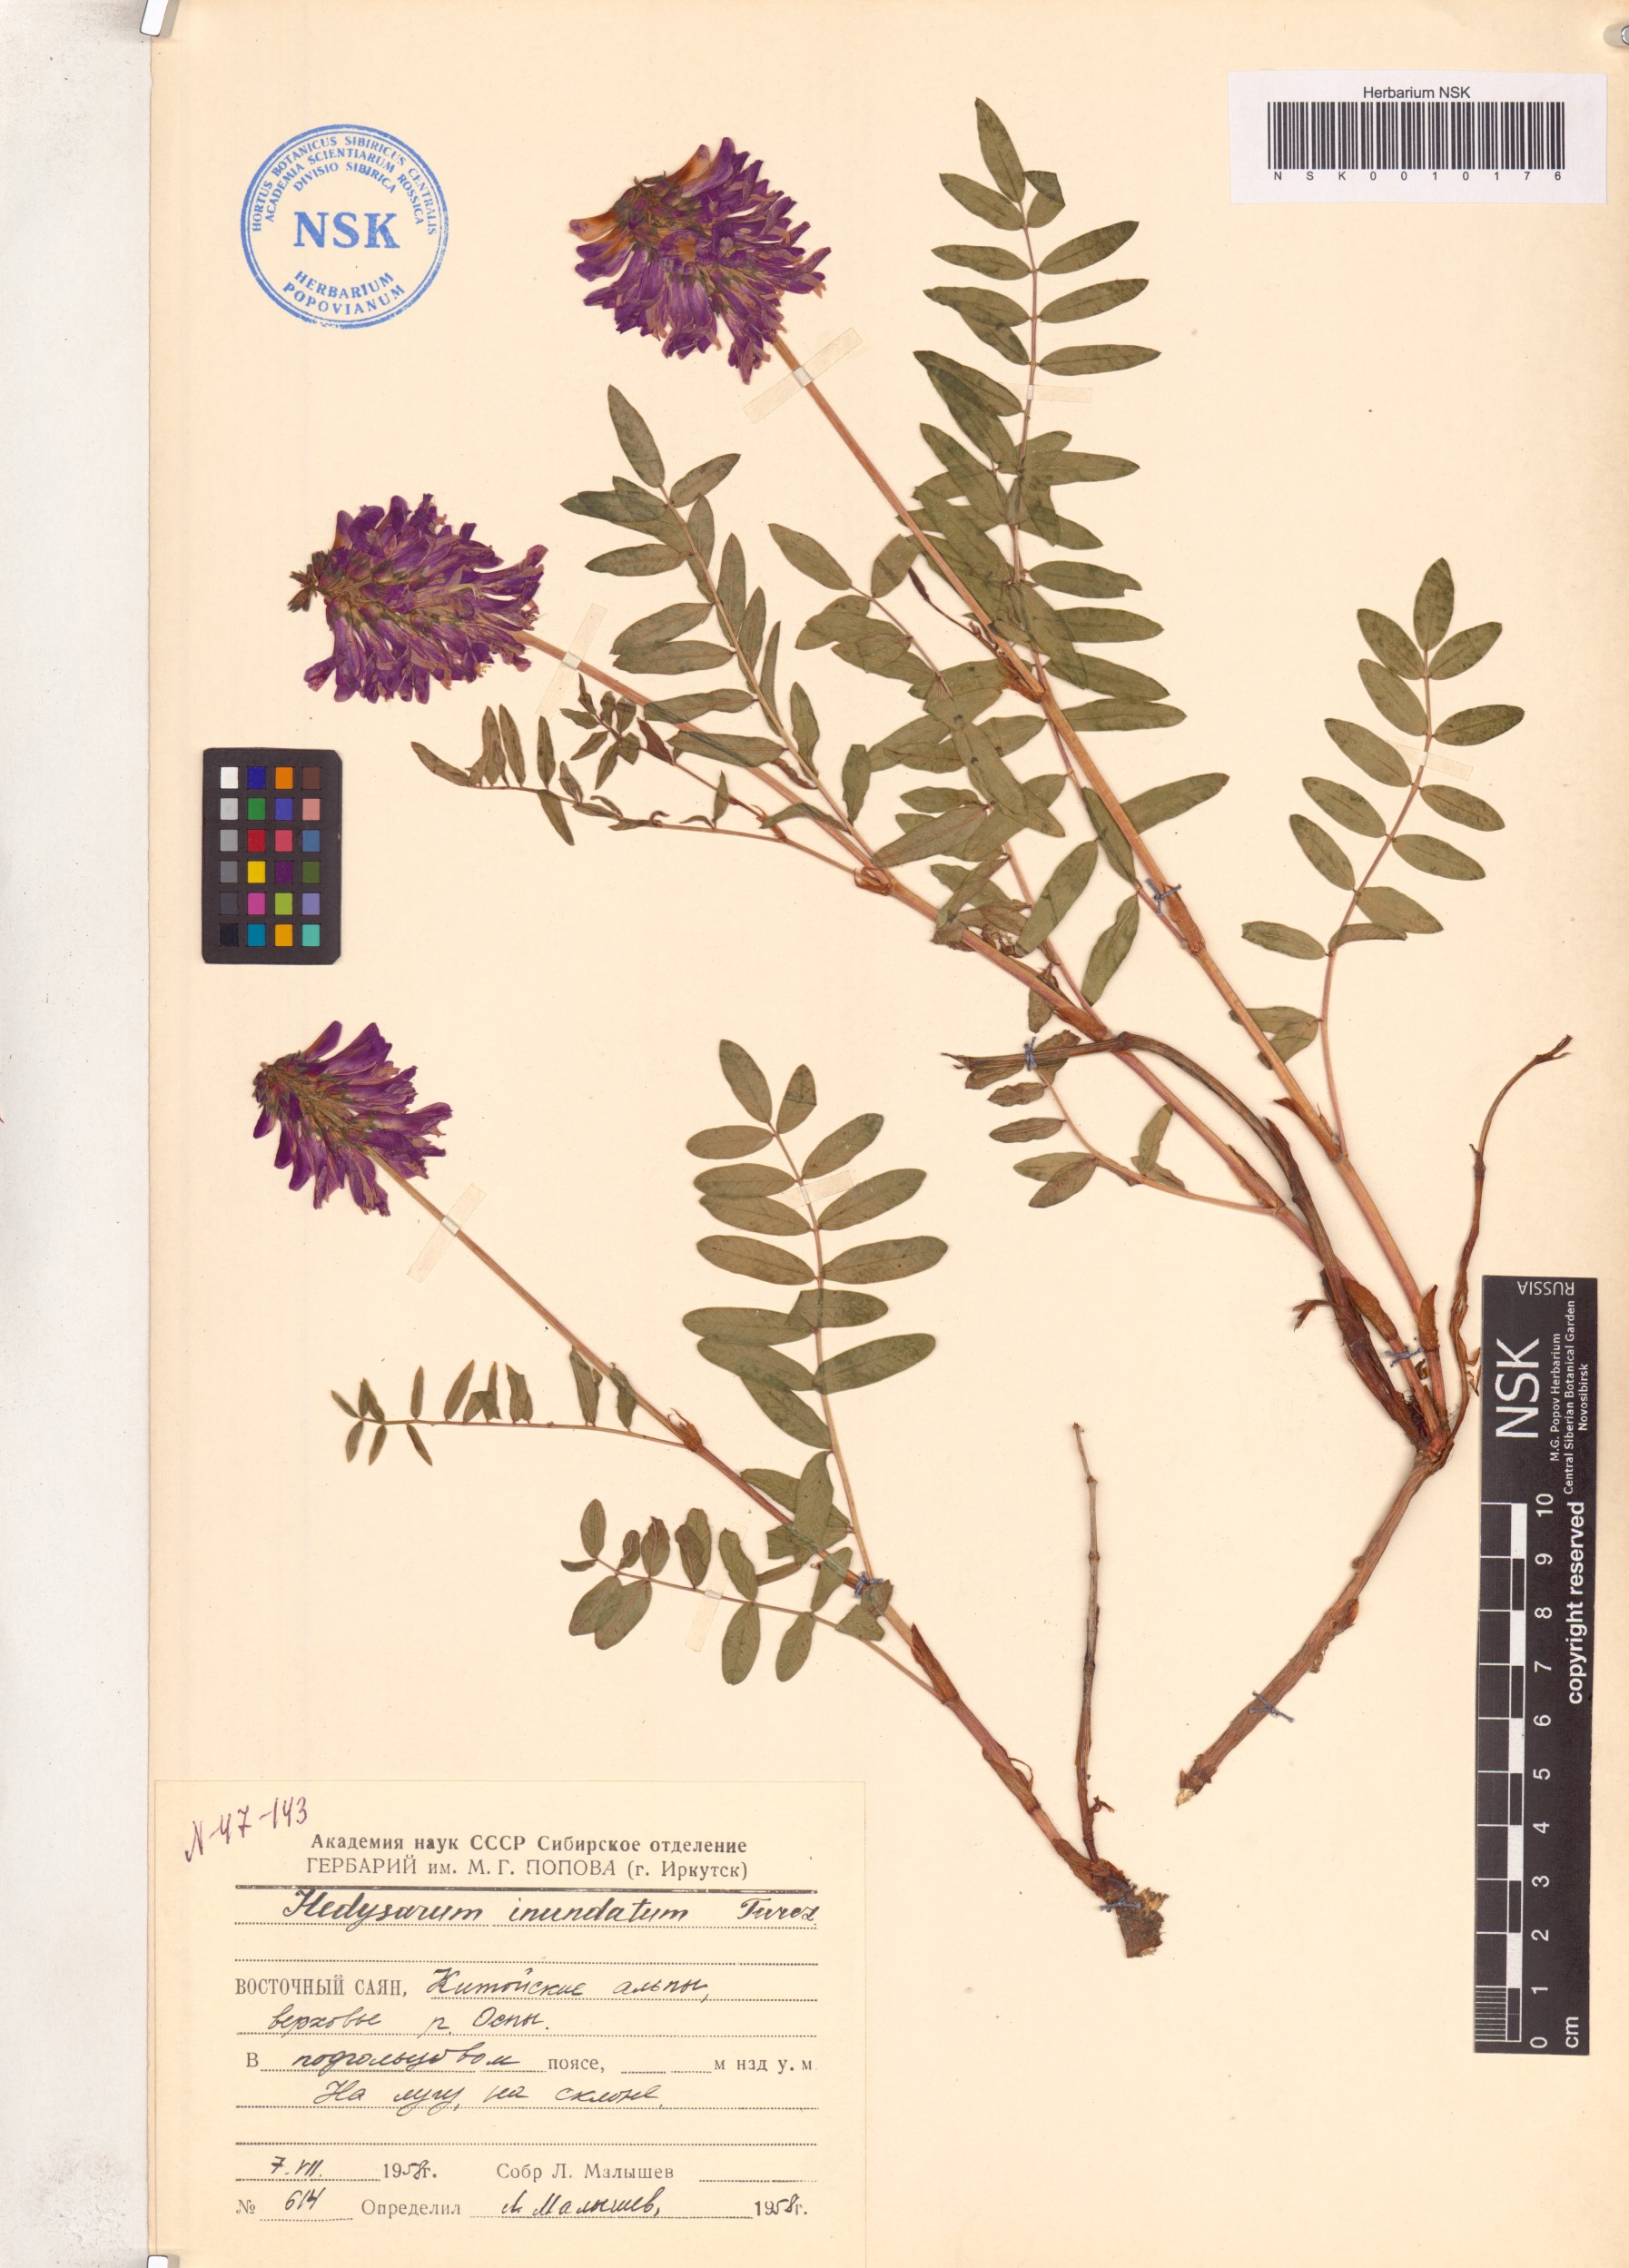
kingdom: Plantae
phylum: Tracheophyta
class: Magnoliopsida
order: Fabales
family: Fabaceae
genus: Hedysarum
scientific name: Hedysarum inundatum
